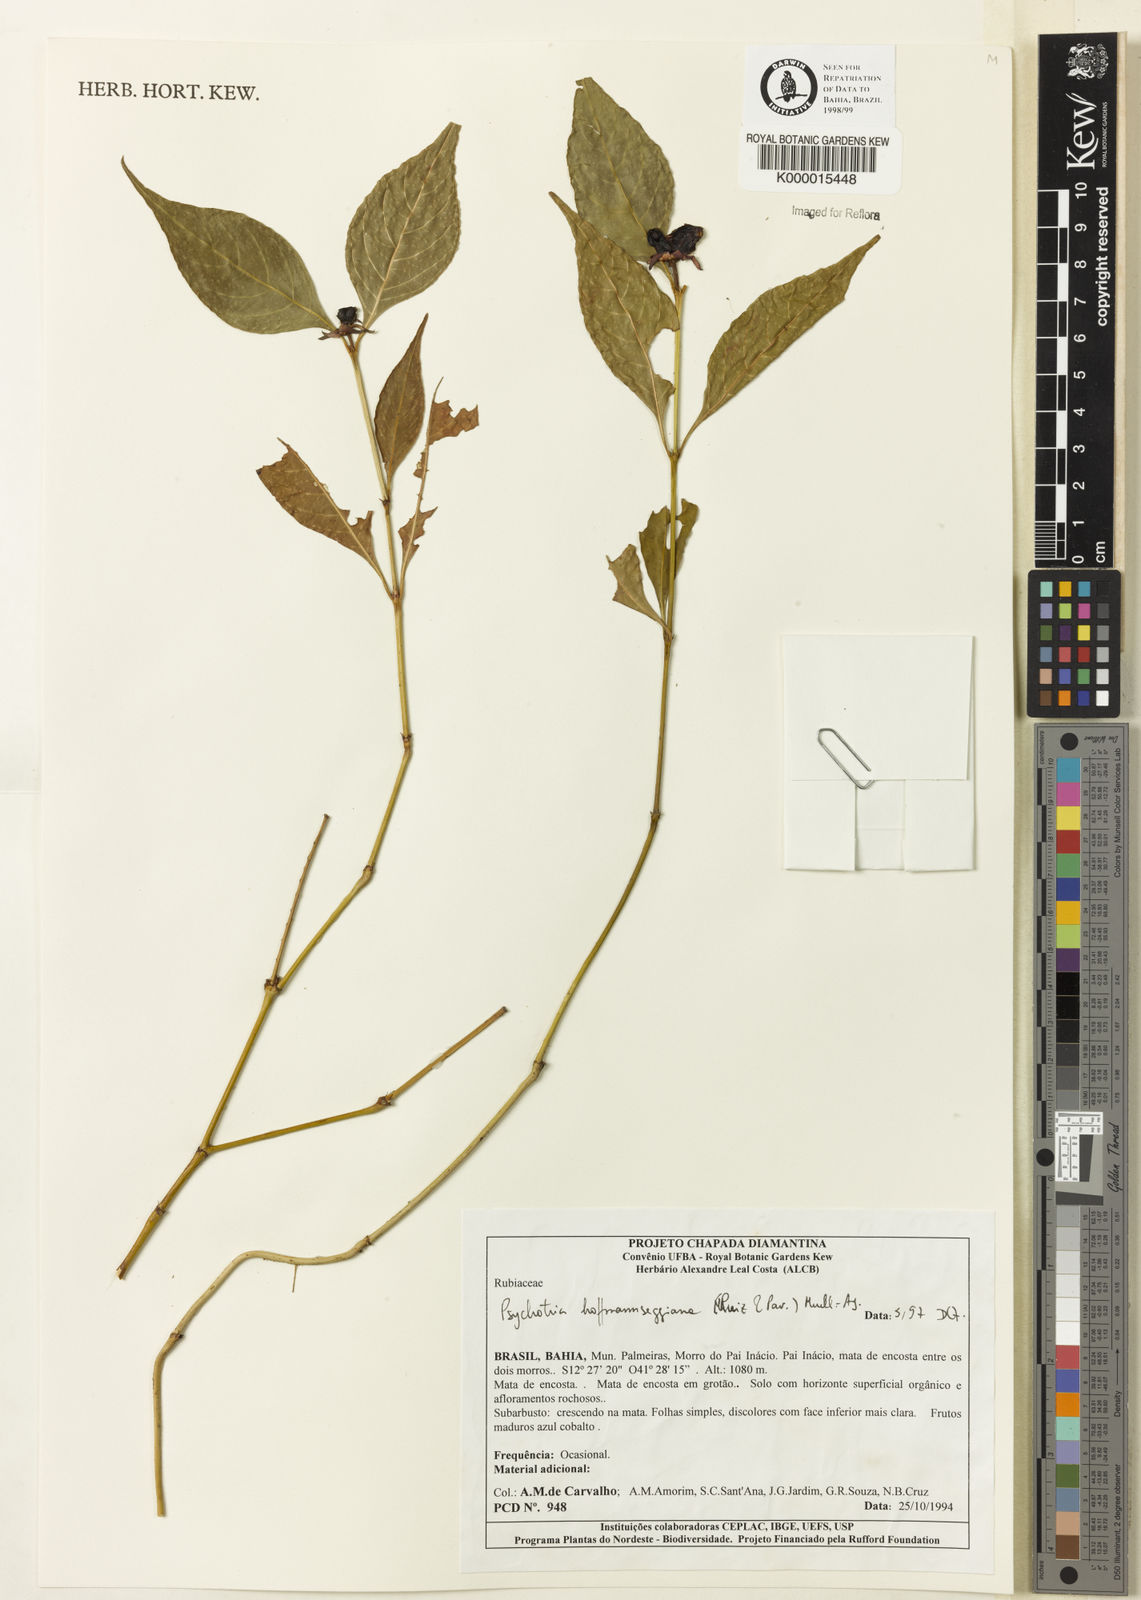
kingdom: Plantae
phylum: Tracheophyta
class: Magnoliopsida
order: Gentianales
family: Rubiaceae
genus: Psychotria
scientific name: Psychotria
